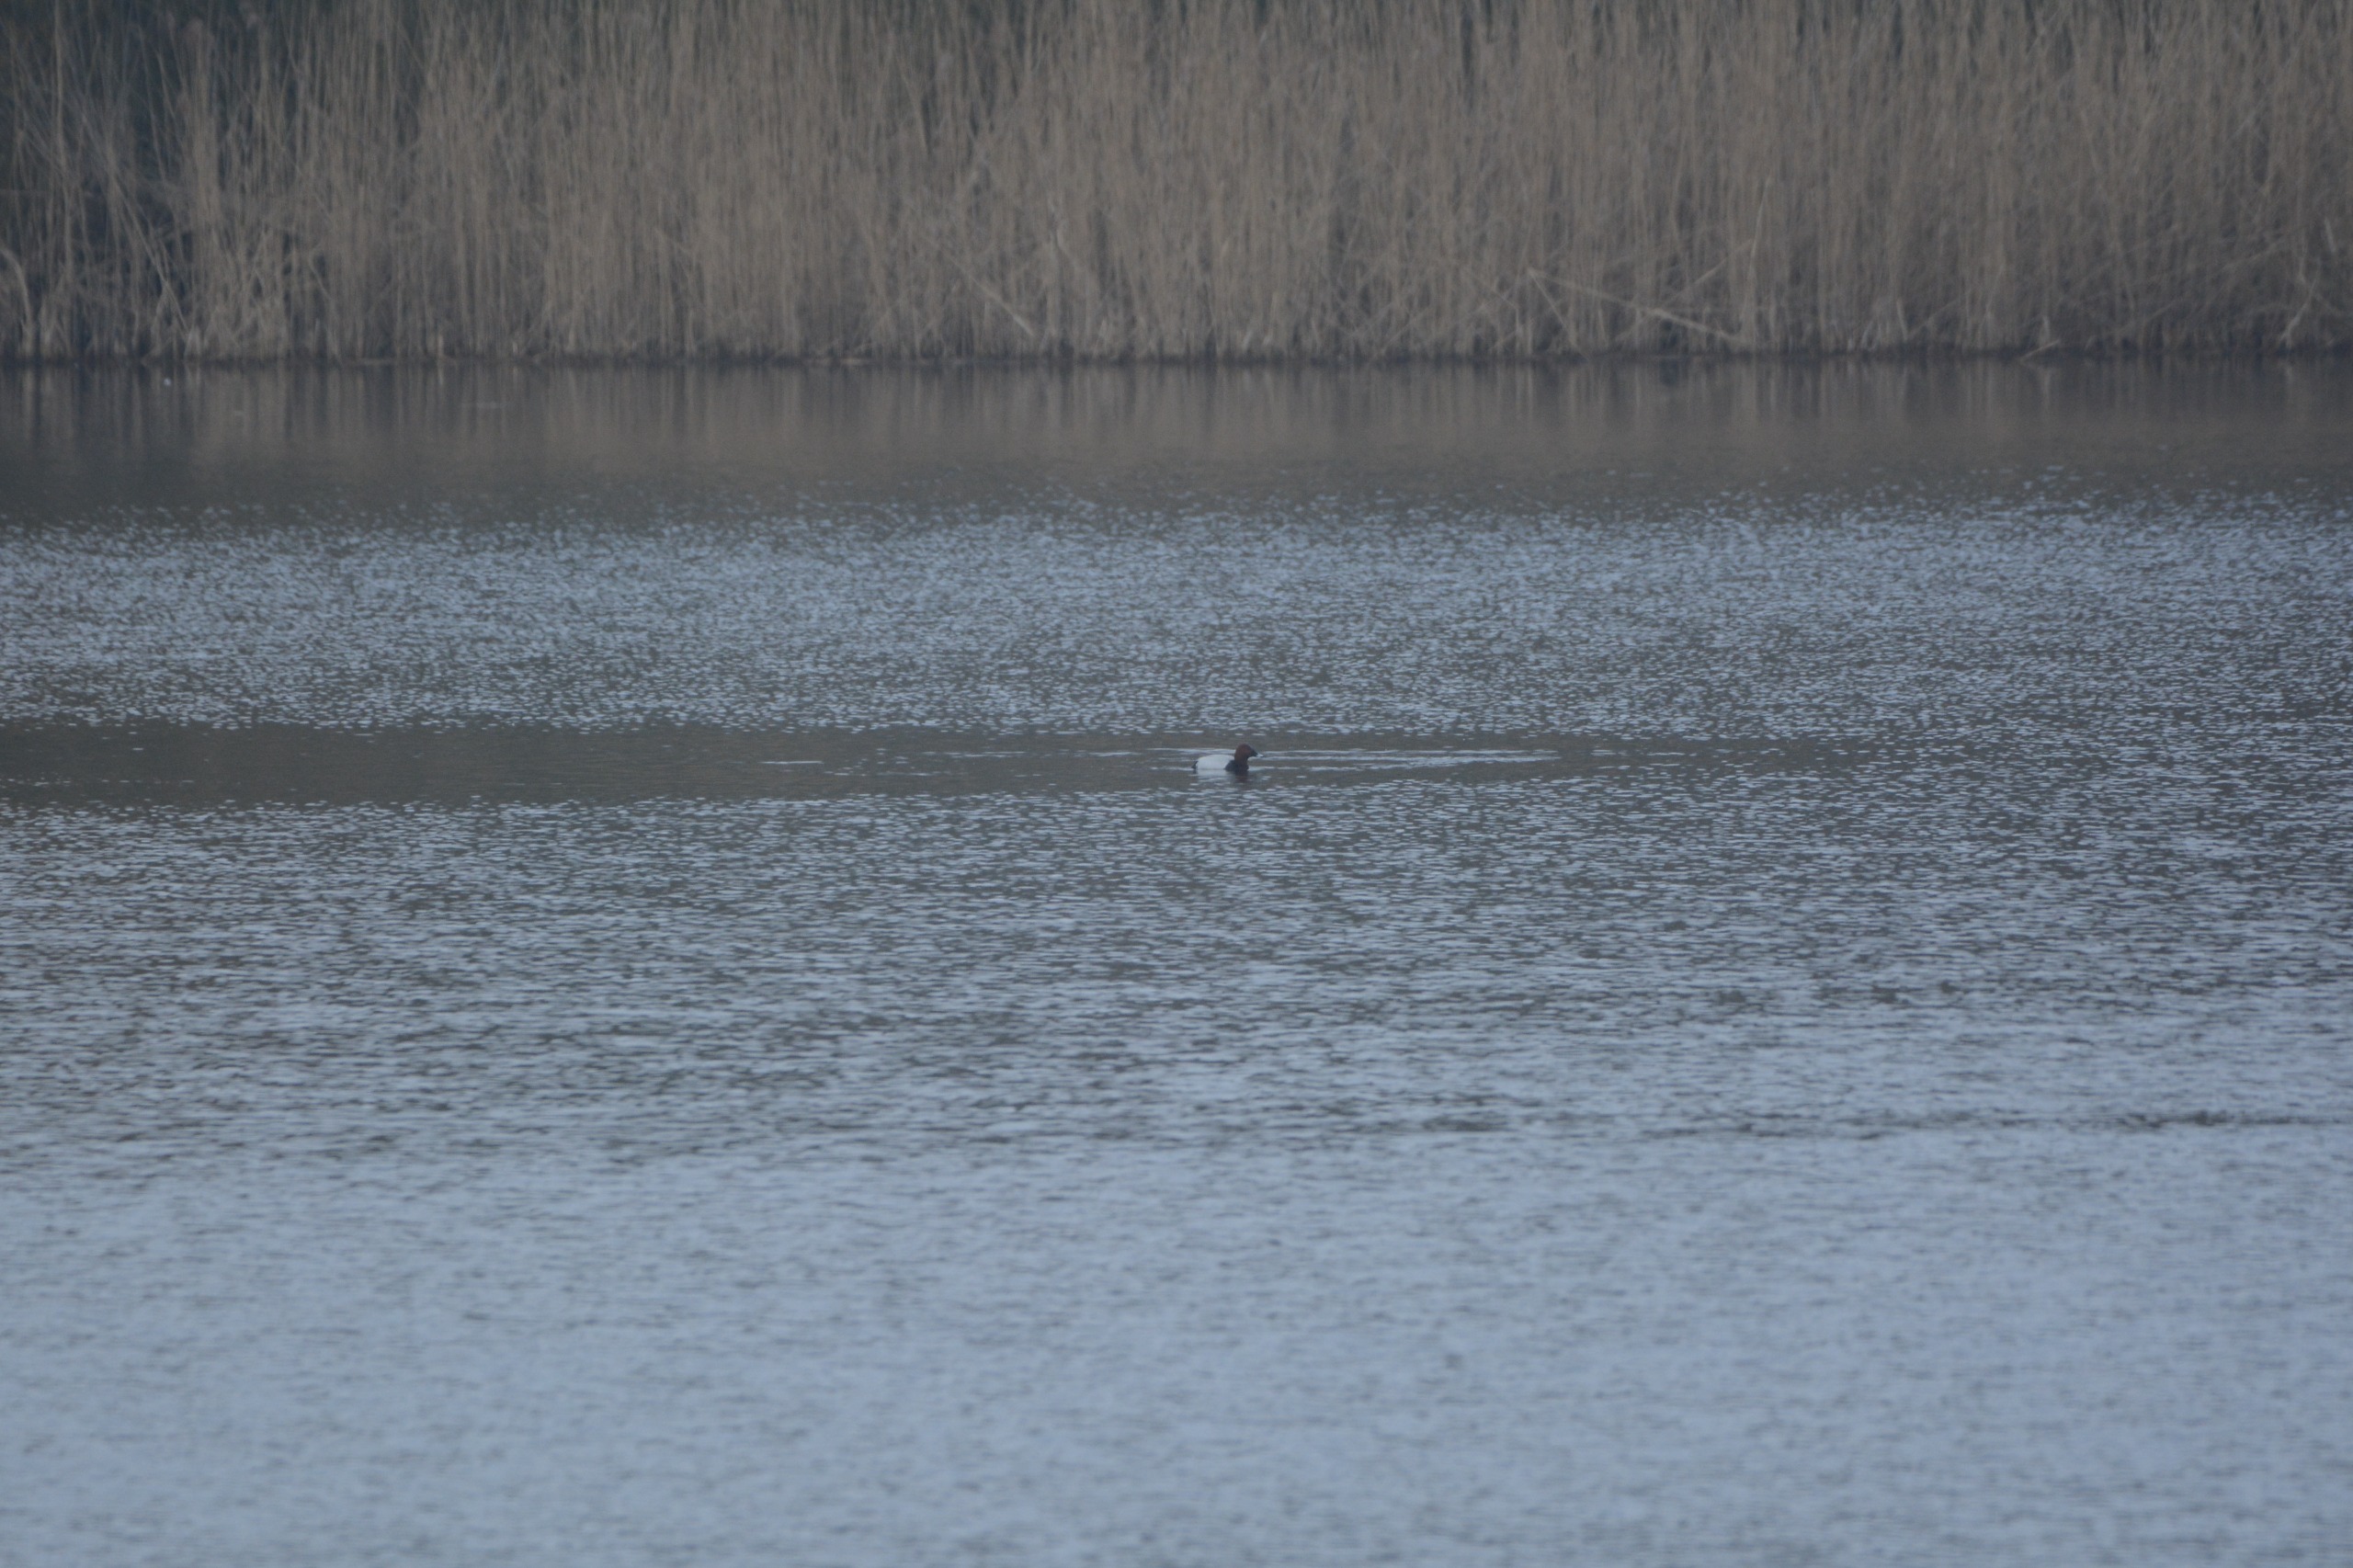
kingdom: Animalia
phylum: Chordata
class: Aves
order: Anseriformes
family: Anatidae
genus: Aythya
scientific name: Aythya ferina
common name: Taffeland
